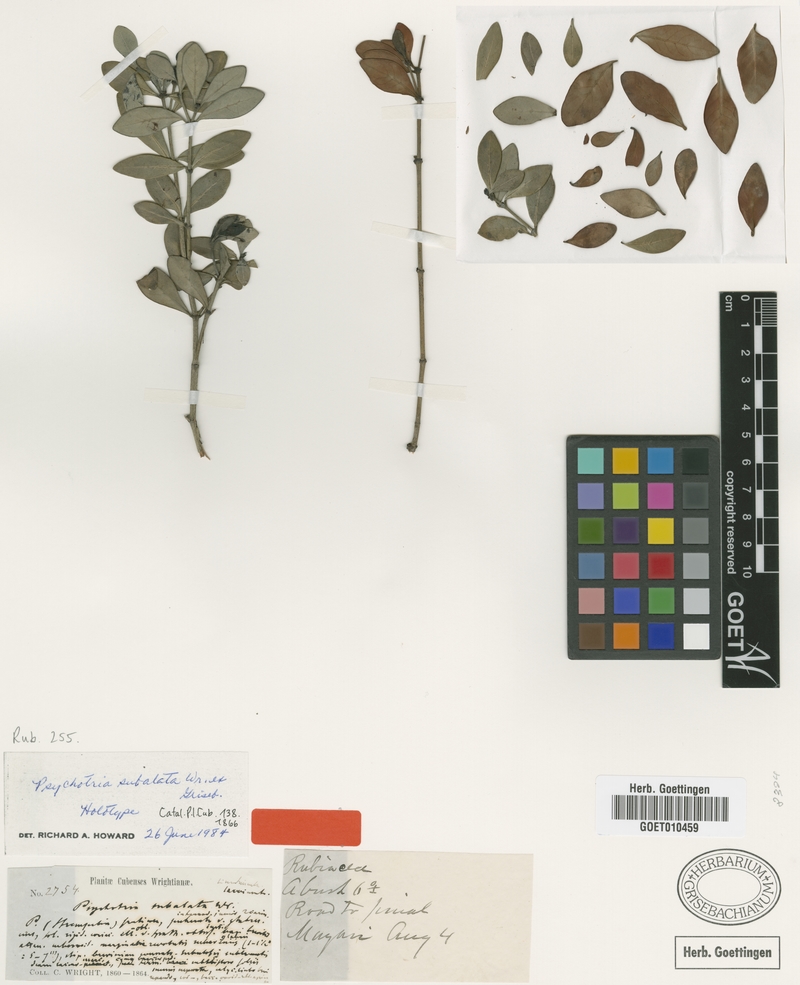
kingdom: Plantae
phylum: Tracheophyta
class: Magnoliopsida
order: Gentianales
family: Rubiaceae
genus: Palicourea
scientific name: Palicourea orientensis
